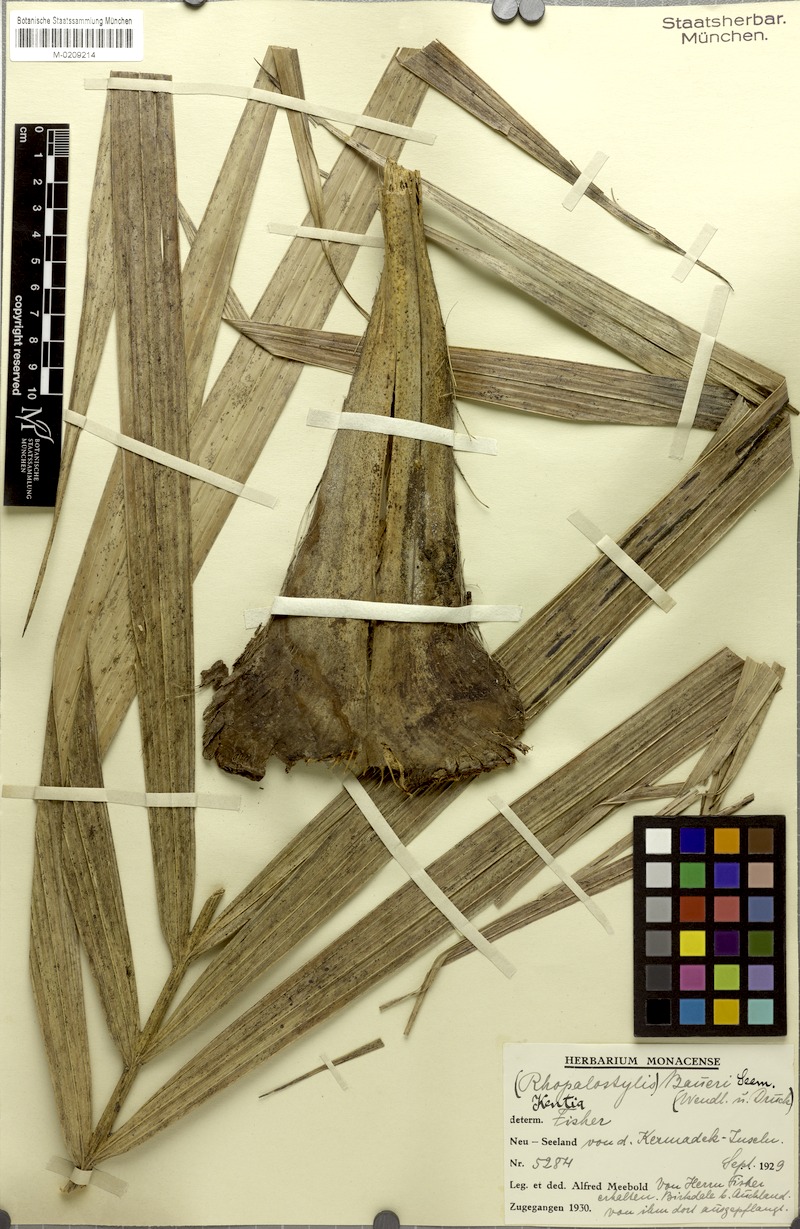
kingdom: Plantae
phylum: Tracheophyta
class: Liliopsida
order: Arecales
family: Arecaceae
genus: Rhopalostylis
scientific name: Rhopalostylis baueri
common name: Norfolk island palm
